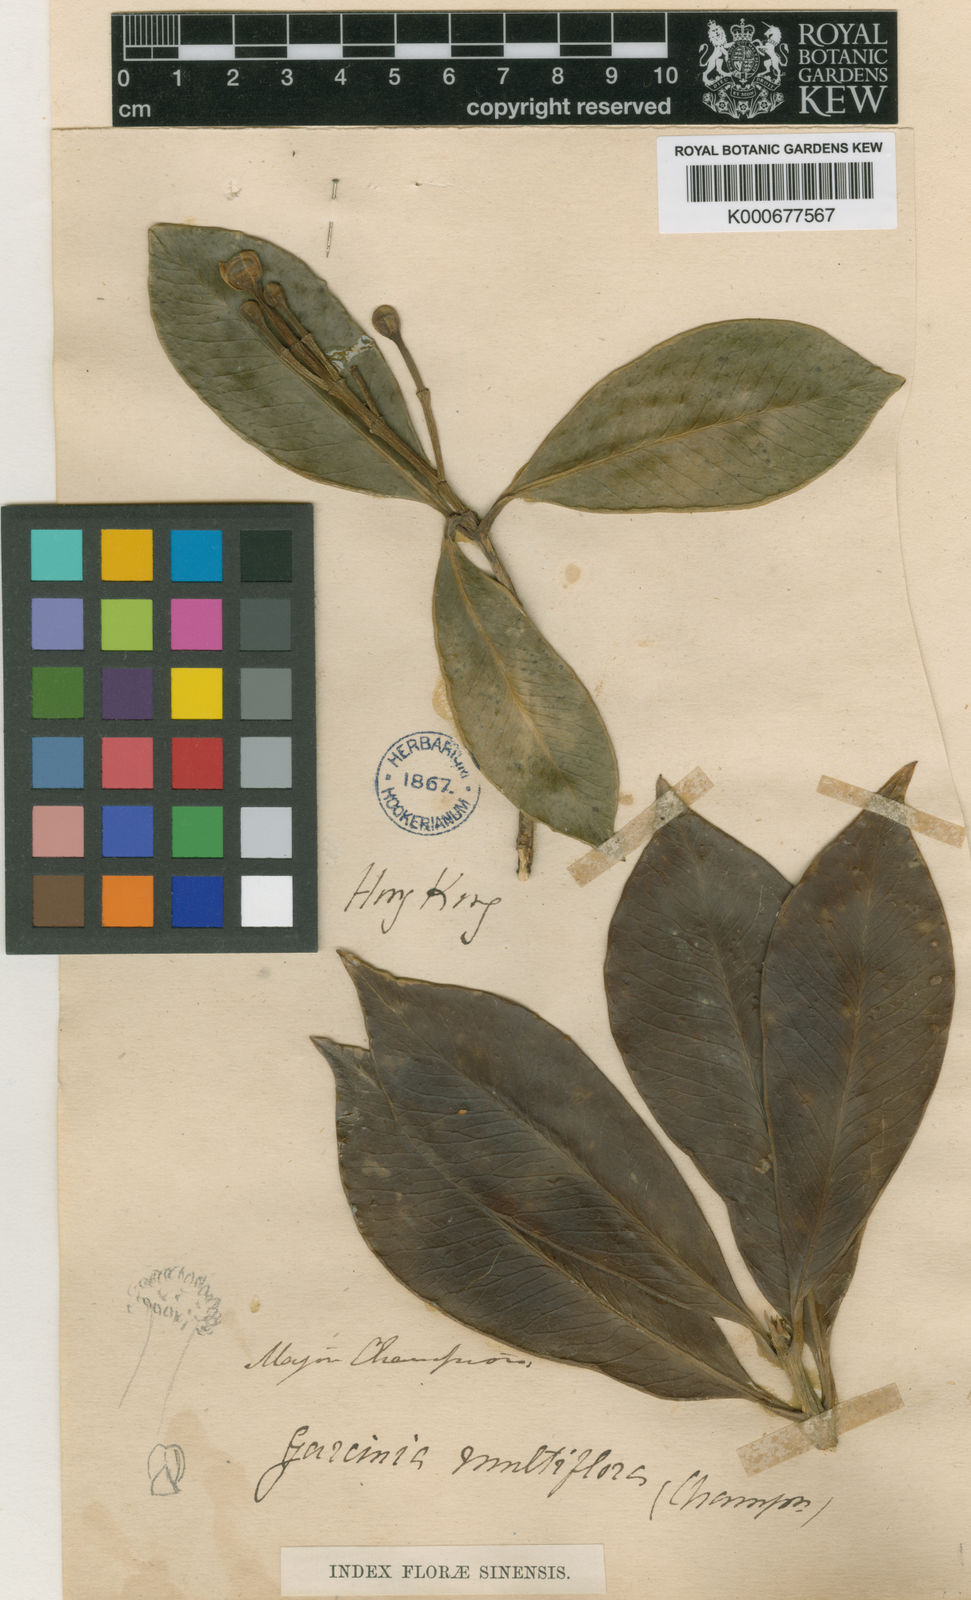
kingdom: Plantae
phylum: Tracheophyta
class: Magnoliopsida
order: Malpighiales
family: Clusiaceae
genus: Garcinia
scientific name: Garcinia multiflora
